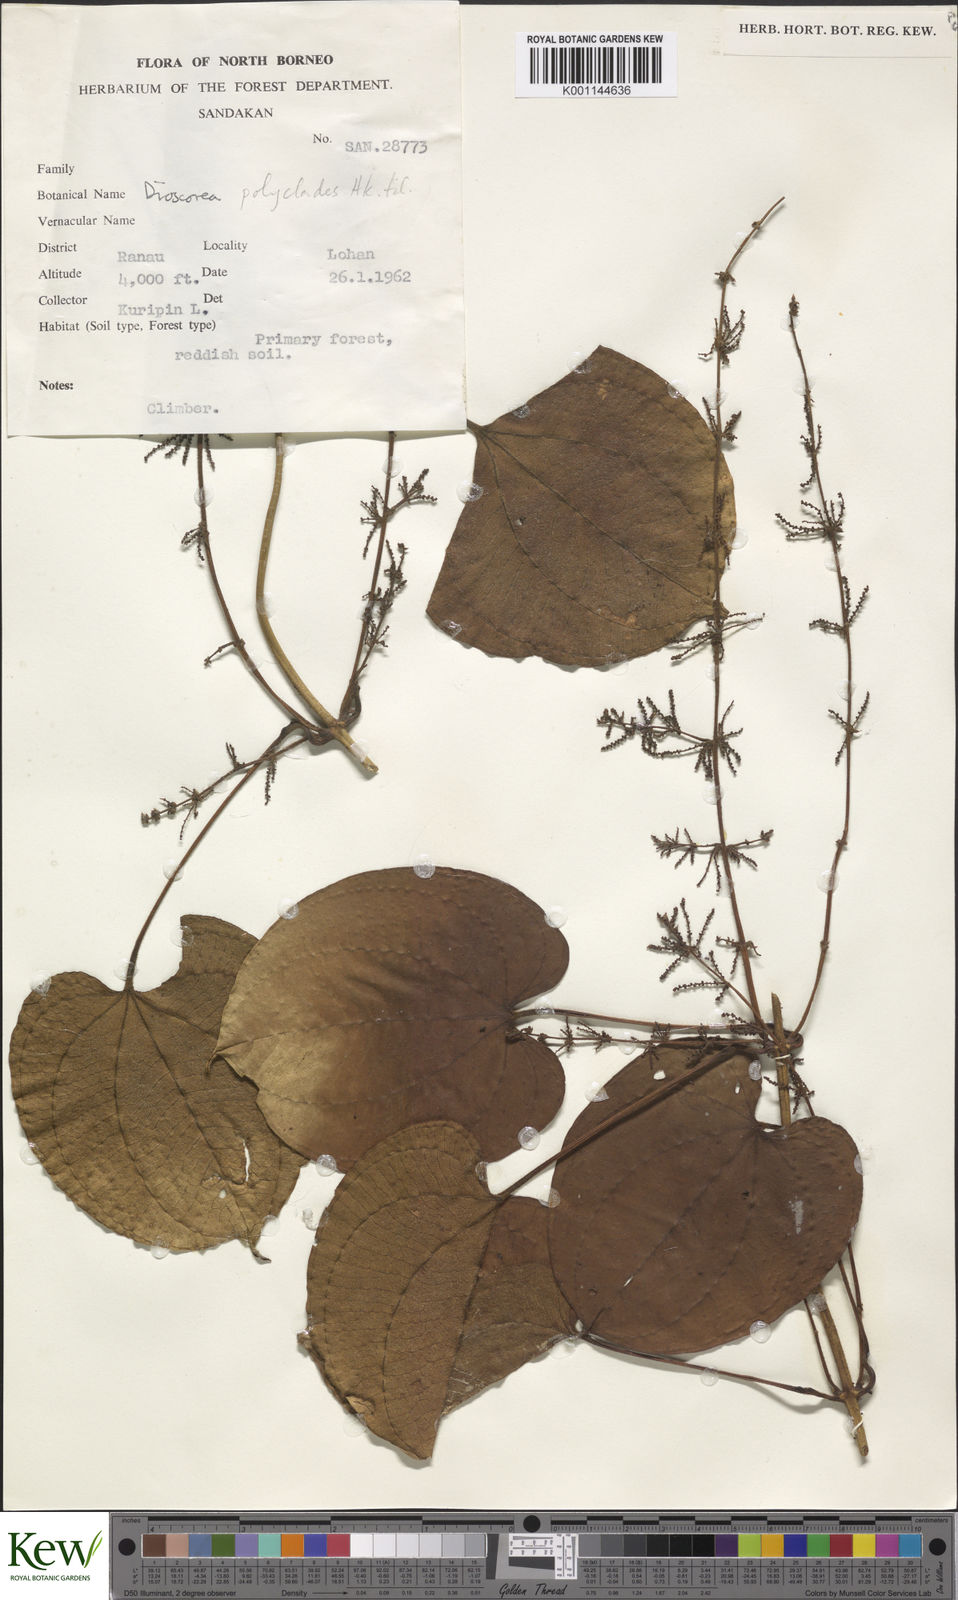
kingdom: Plantae
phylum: Tracheophyta
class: Liliopsida
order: Dioscoreales
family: Dioscoreaceae
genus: Dioscorea
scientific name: Dioscorea polyclados
